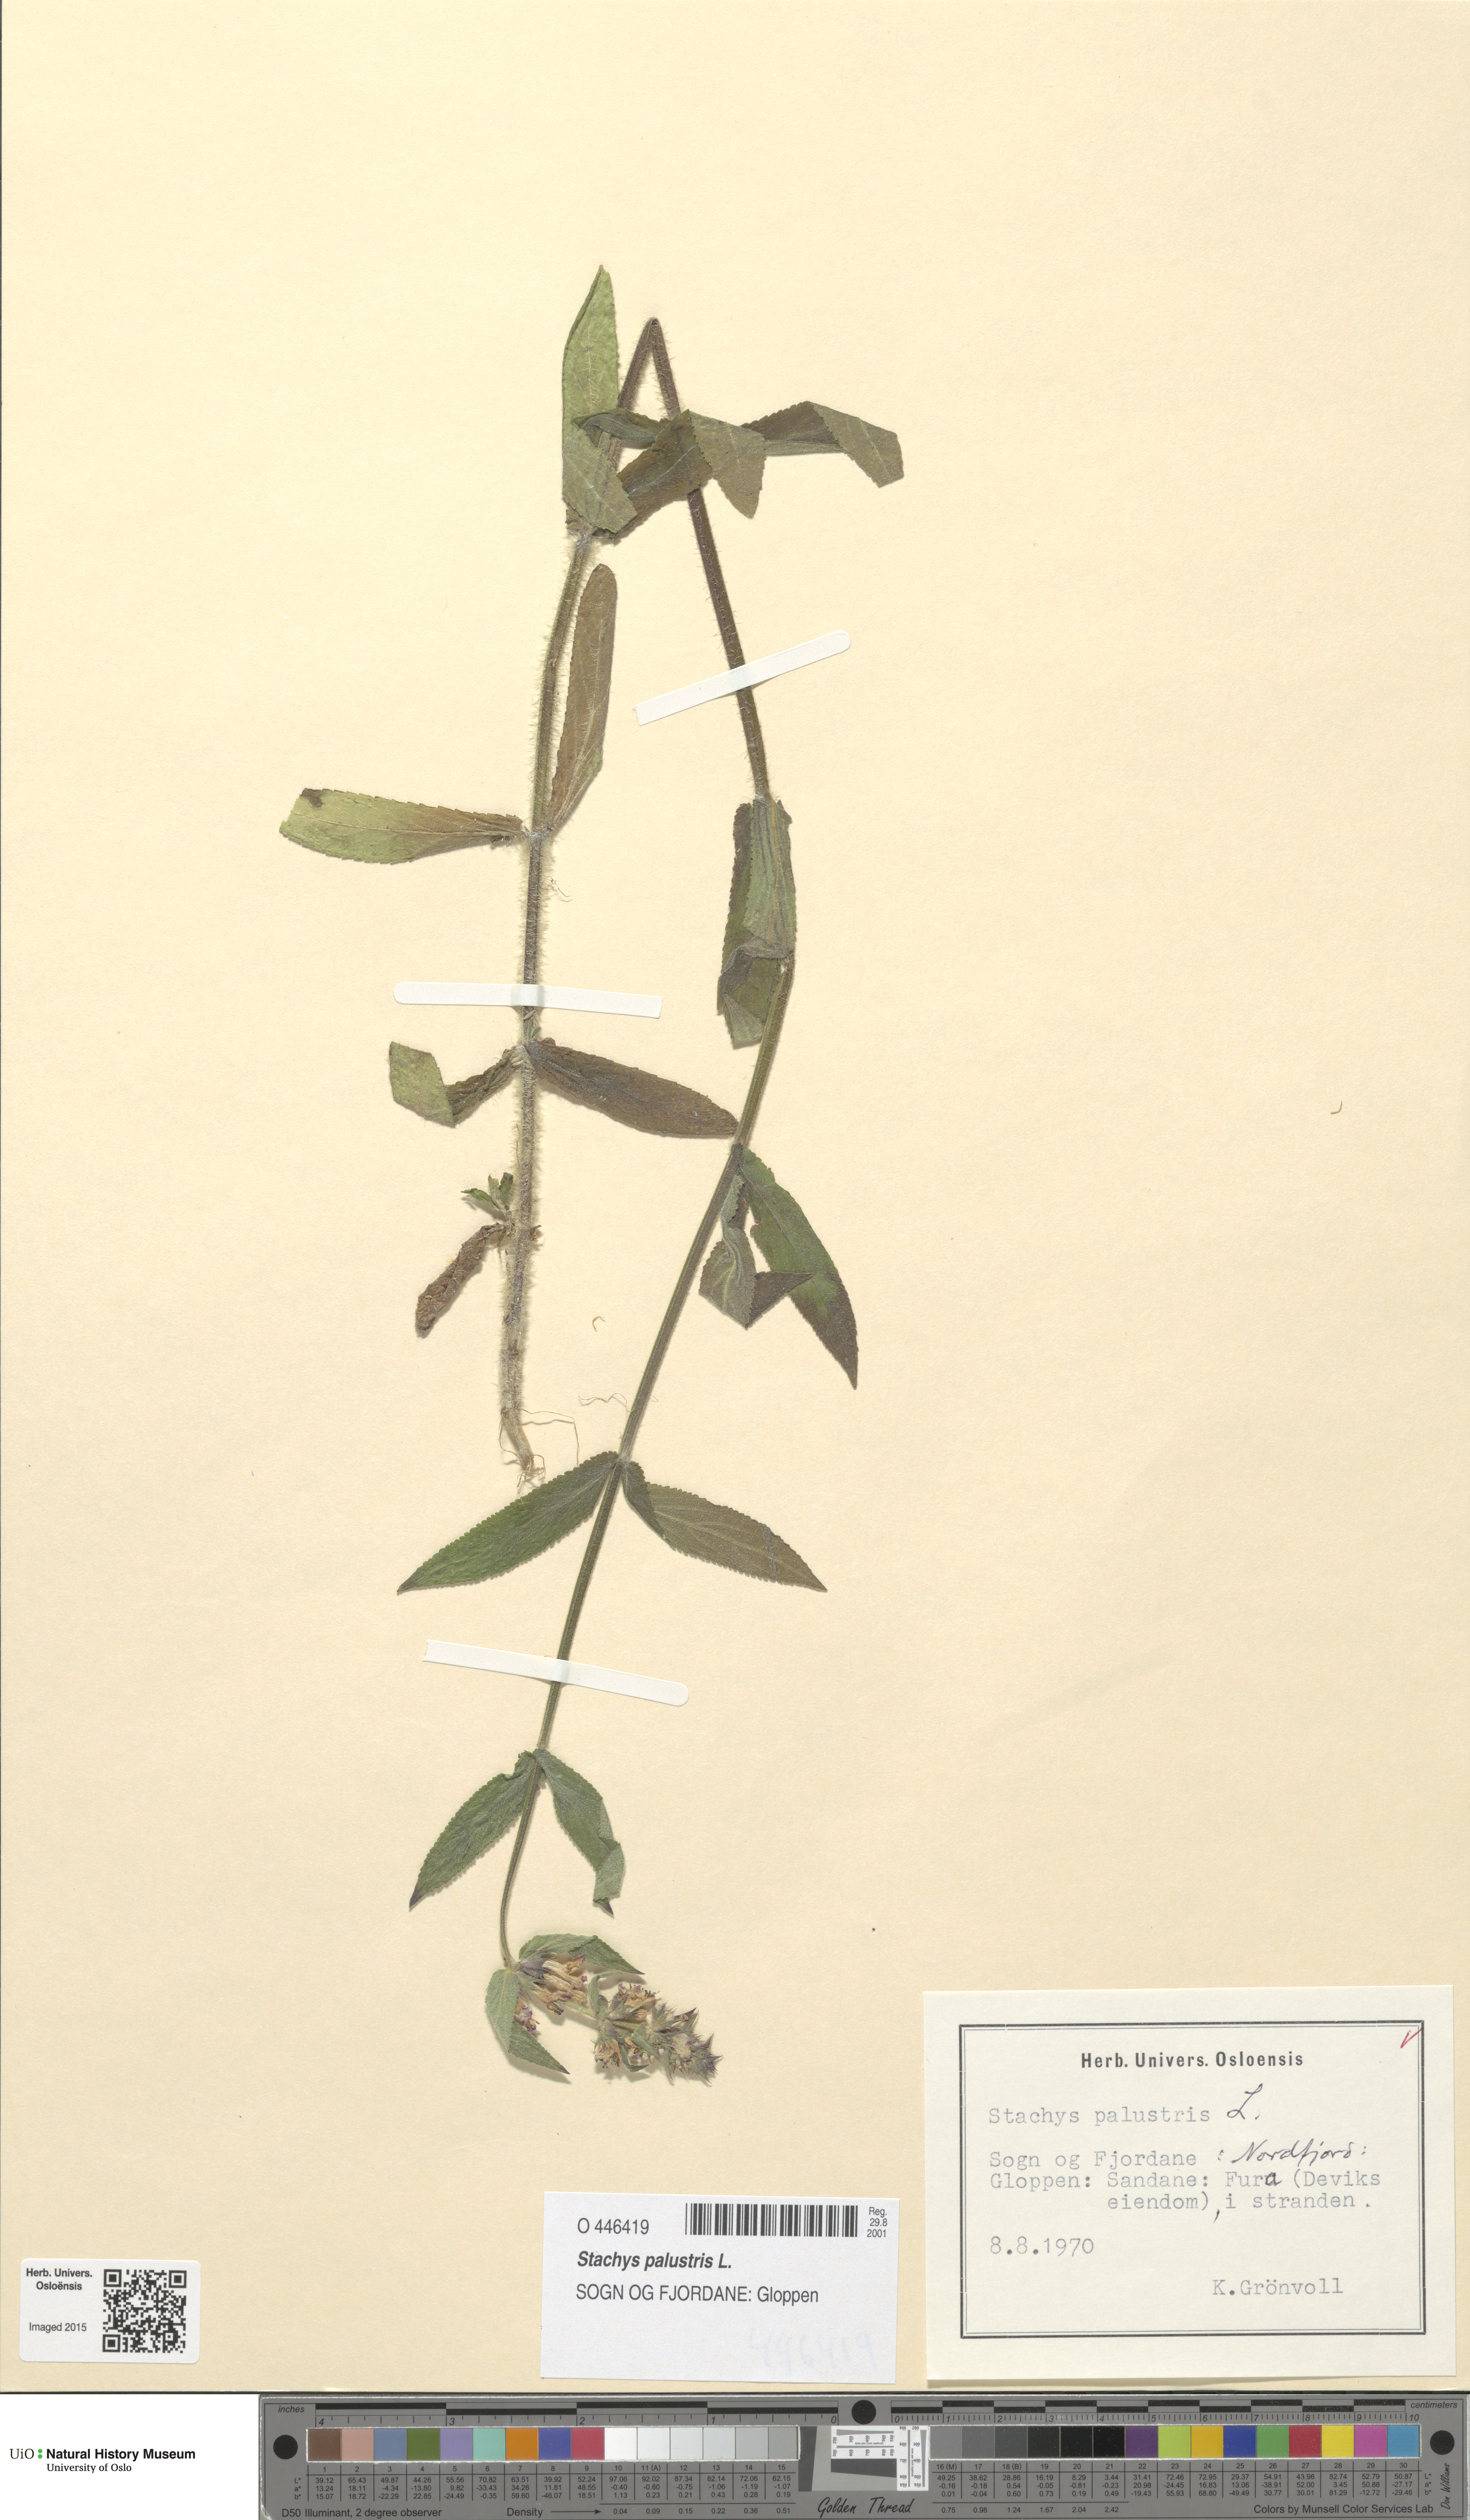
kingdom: Plantae
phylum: Tracheophyta
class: Magnoliopsida
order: Lamiales
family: Lamiaceae
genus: Stachys
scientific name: Stachys palustris
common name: Marsh woundwort
